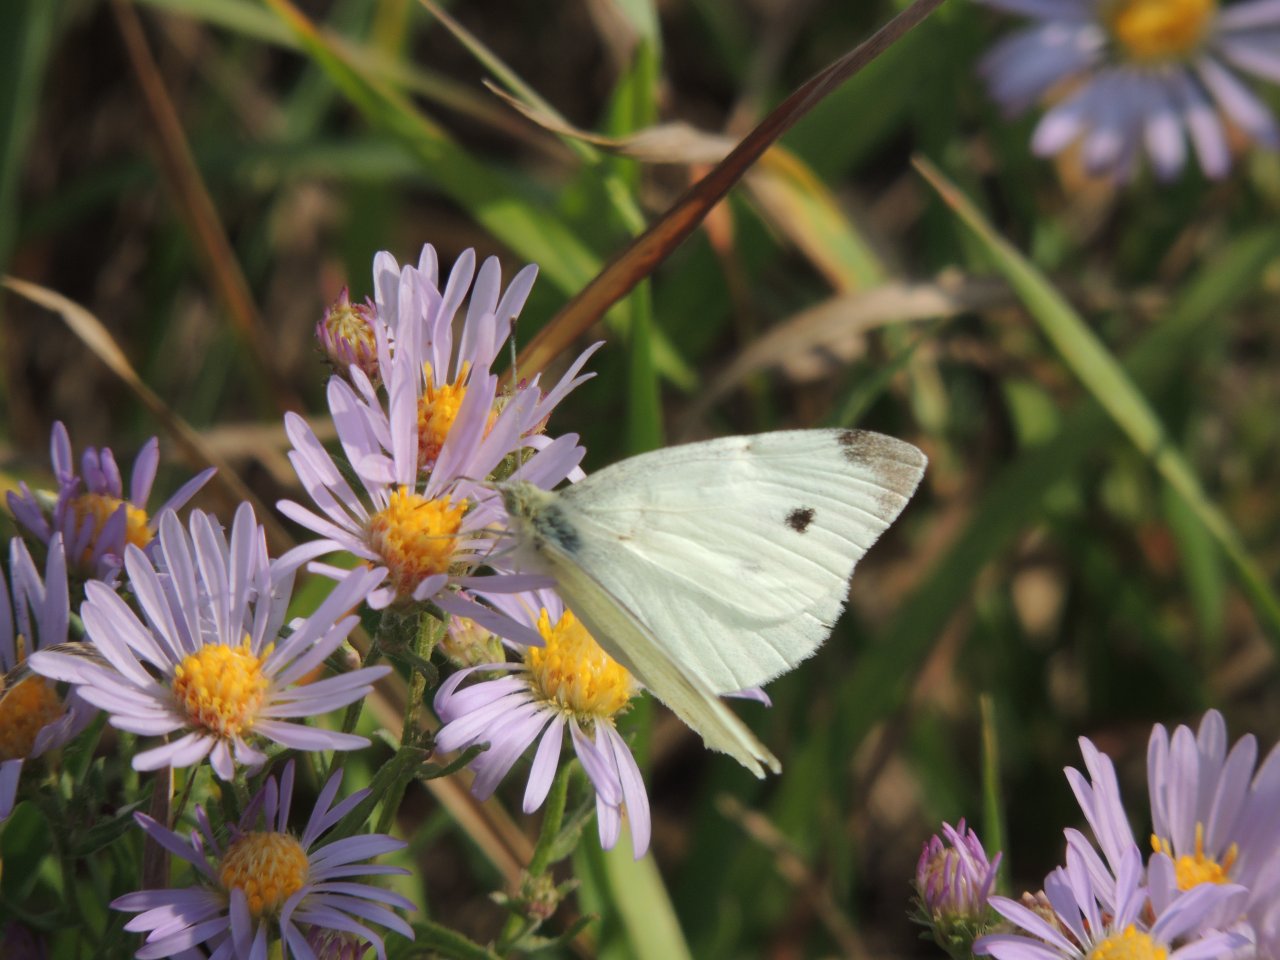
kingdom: Animalia
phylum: Arthropoda
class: Insecta
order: Lepidoptera
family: Pieridae
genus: Pieris
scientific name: Pieris rapae
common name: Cabbage White
